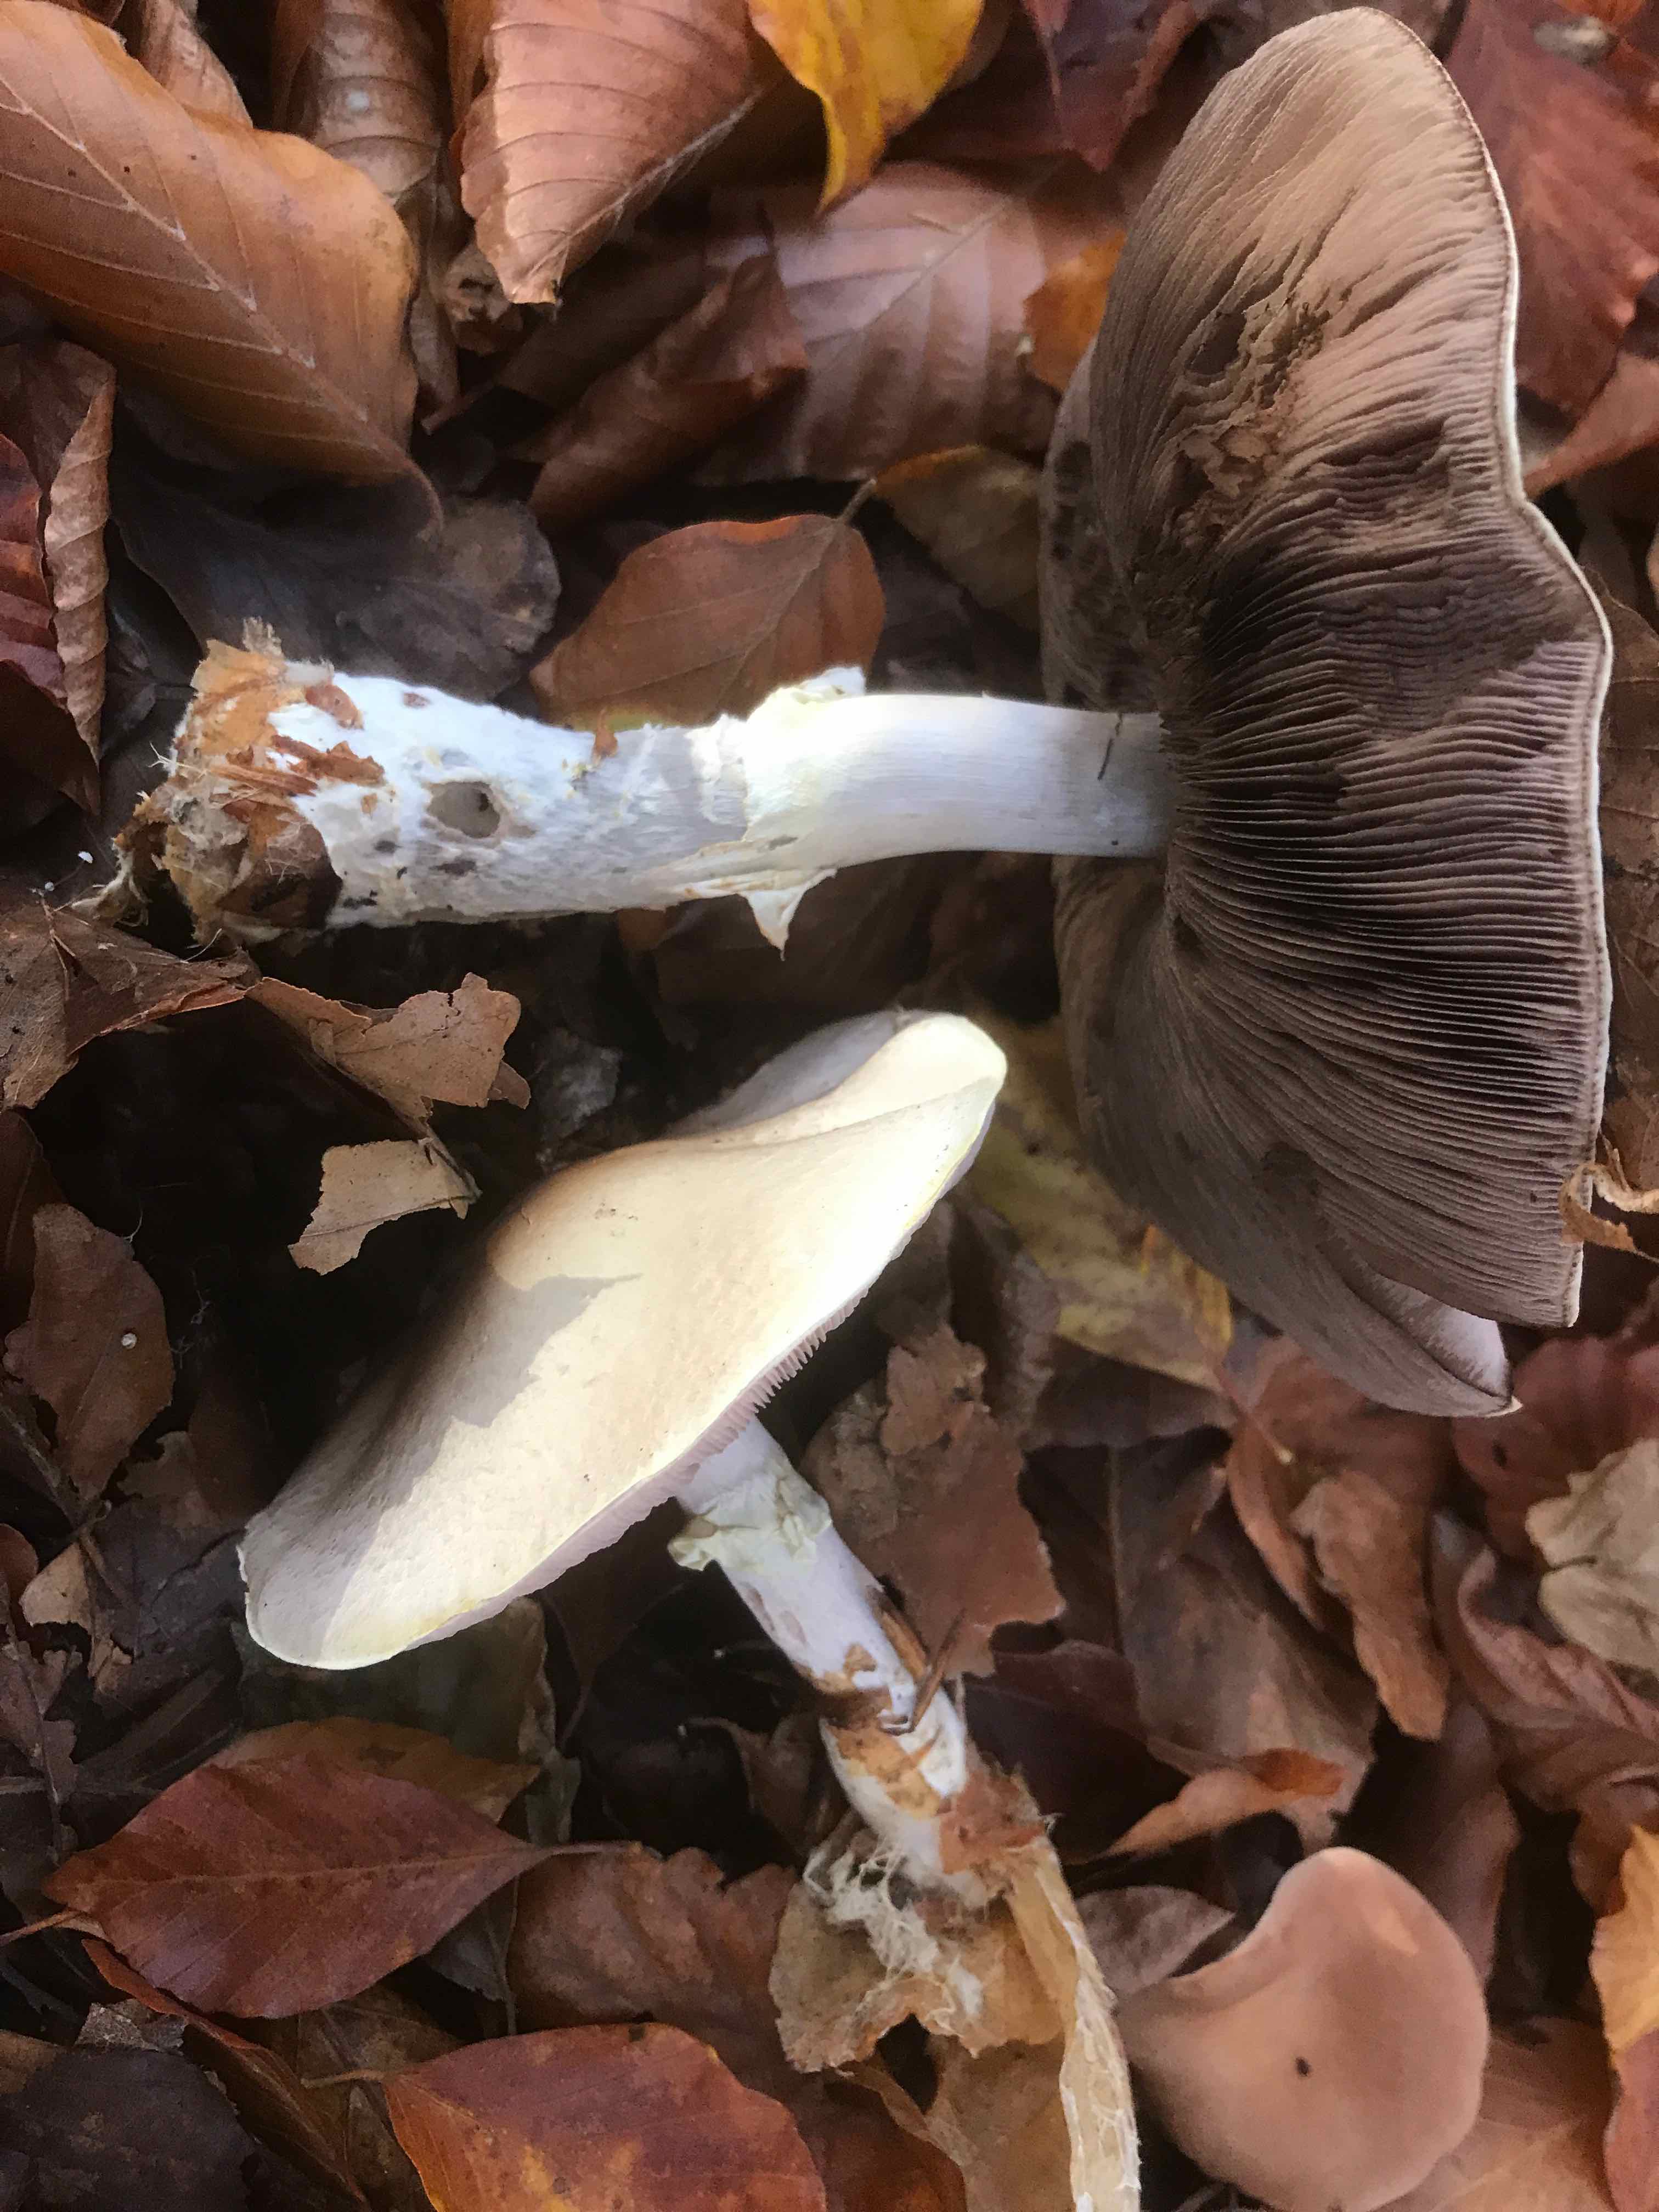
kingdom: Fungi
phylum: Basidiomycota
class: Agaricomycetes
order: Agaricales
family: Agaricaceae
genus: Agaricus
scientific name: Agaricus sylvicola
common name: gulhvid champignon
